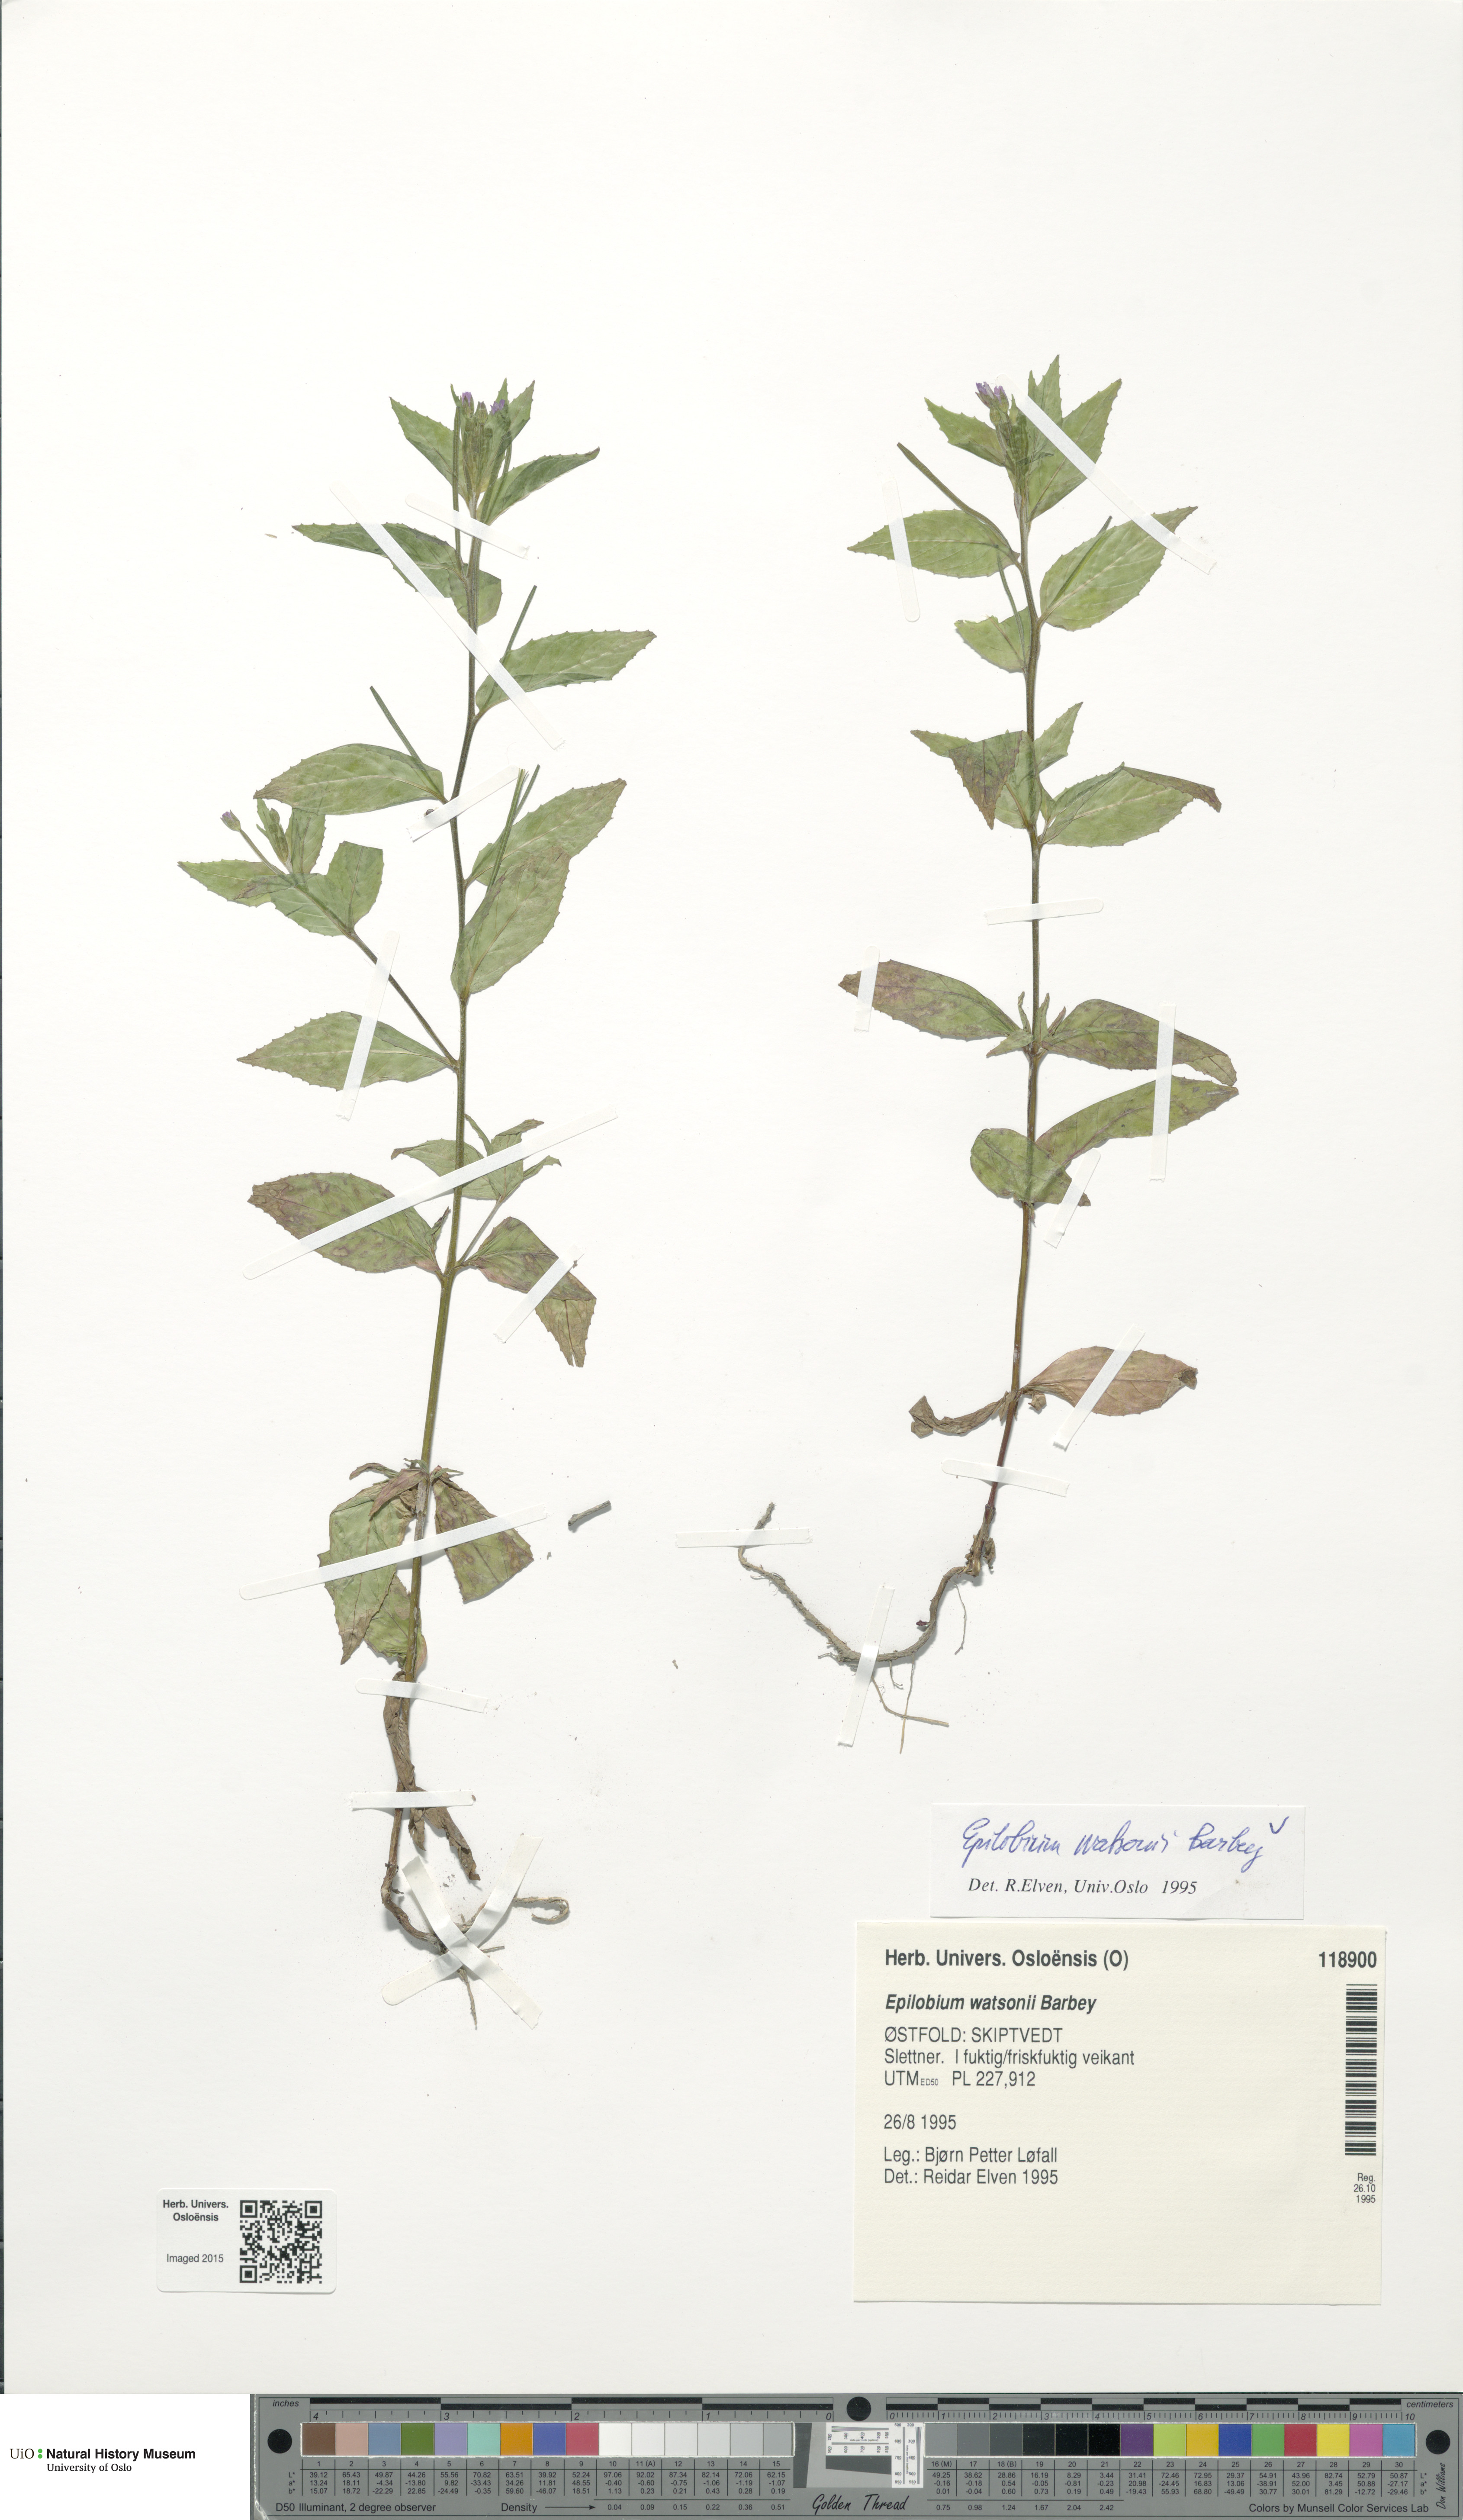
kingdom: Plantae
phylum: Tracheophyta
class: Magnoliopsida
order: Myrtales
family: Onagraceae
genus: Epilobium
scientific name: Epilobium ciliatum
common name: American willowherb
